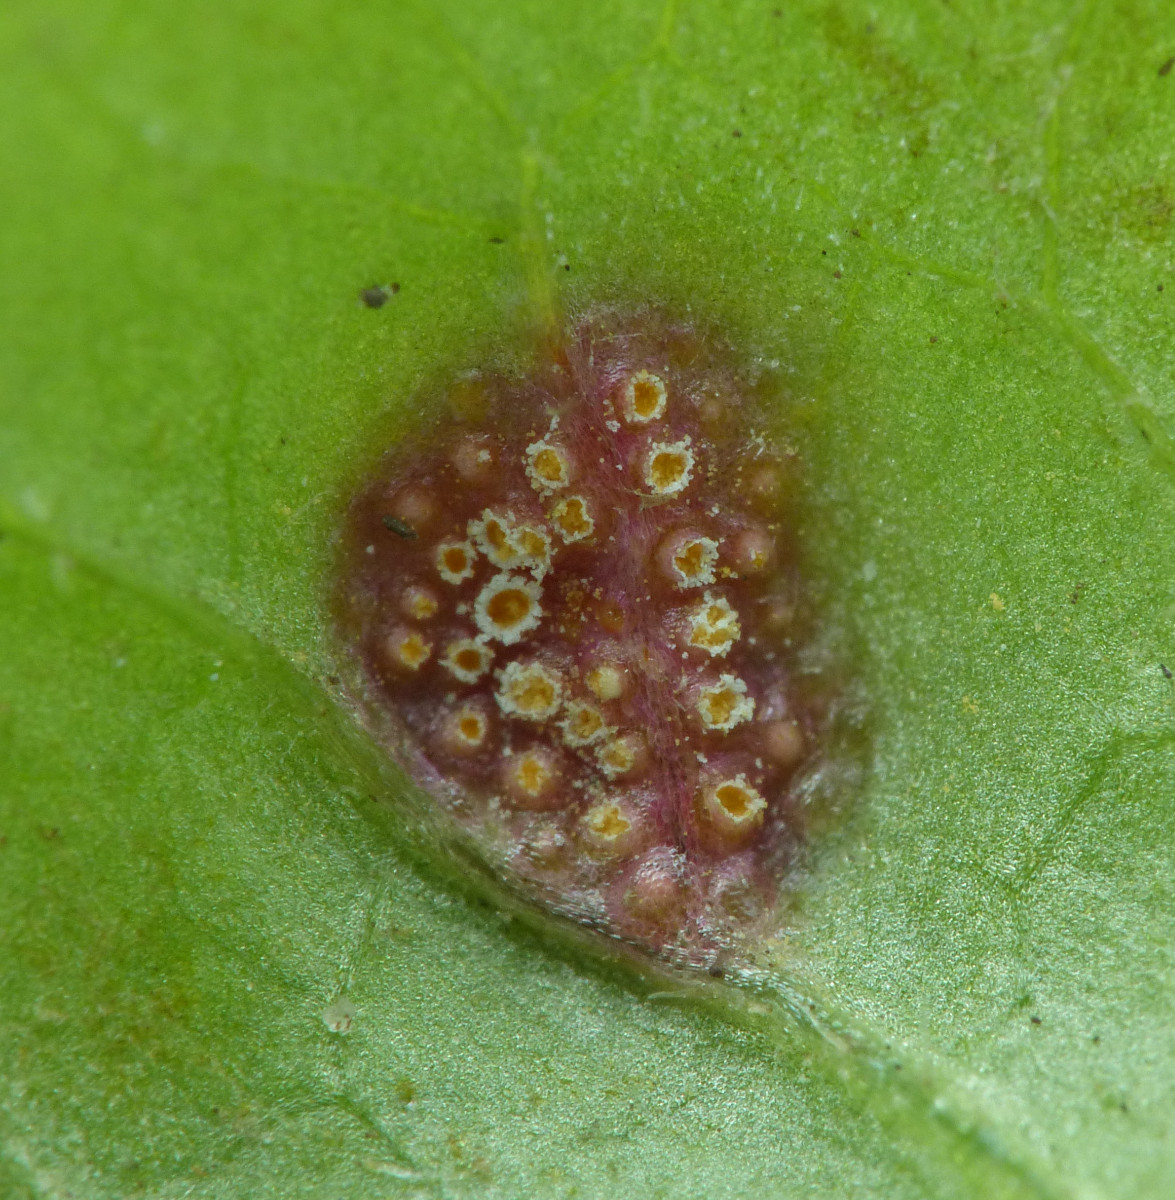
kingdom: Fungi
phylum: Basidiomycota
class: Pucciniomycetes
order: Pucciniales
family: Pucciniaceae
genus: Puccinia
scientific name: Puccinia
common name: tvecellerust
